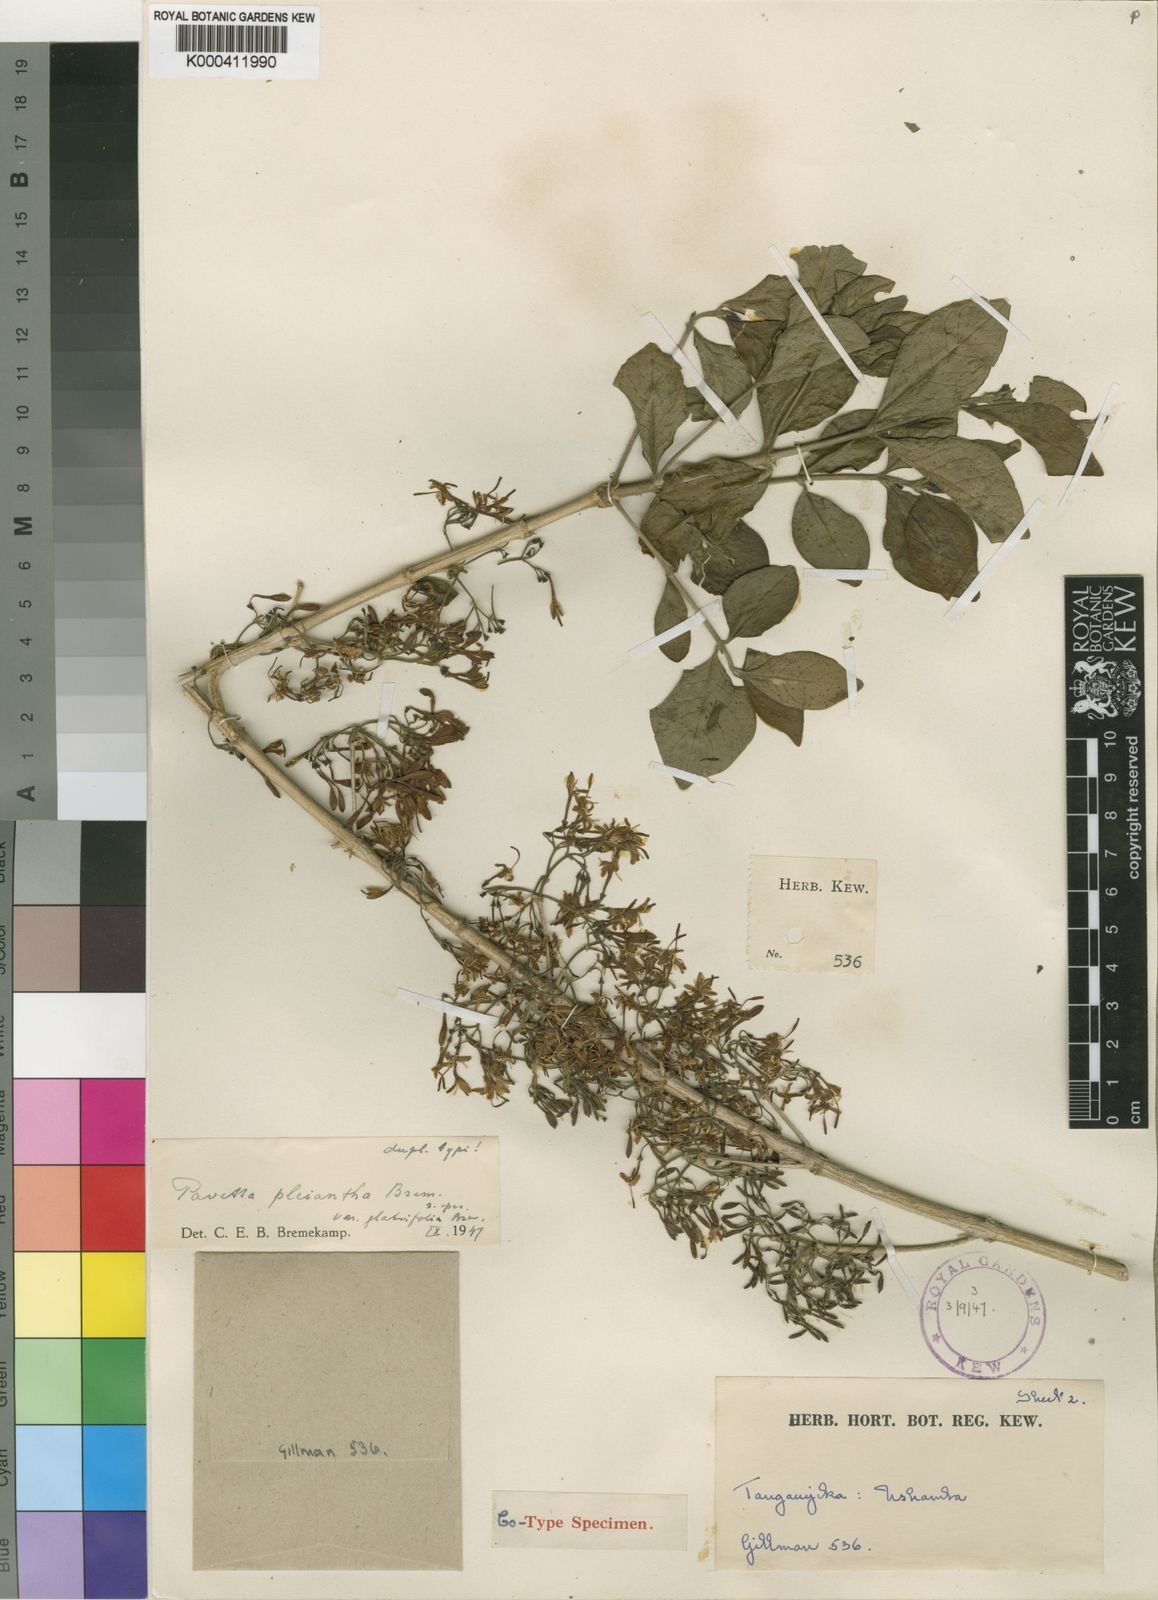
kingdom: Plantae
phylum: Tracheophyta
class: Magnoliopsida
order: Gentianales
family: Rubiaceae
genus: Pavetta
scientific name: Pavetta gardeniifolia
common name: Common brides-bush
